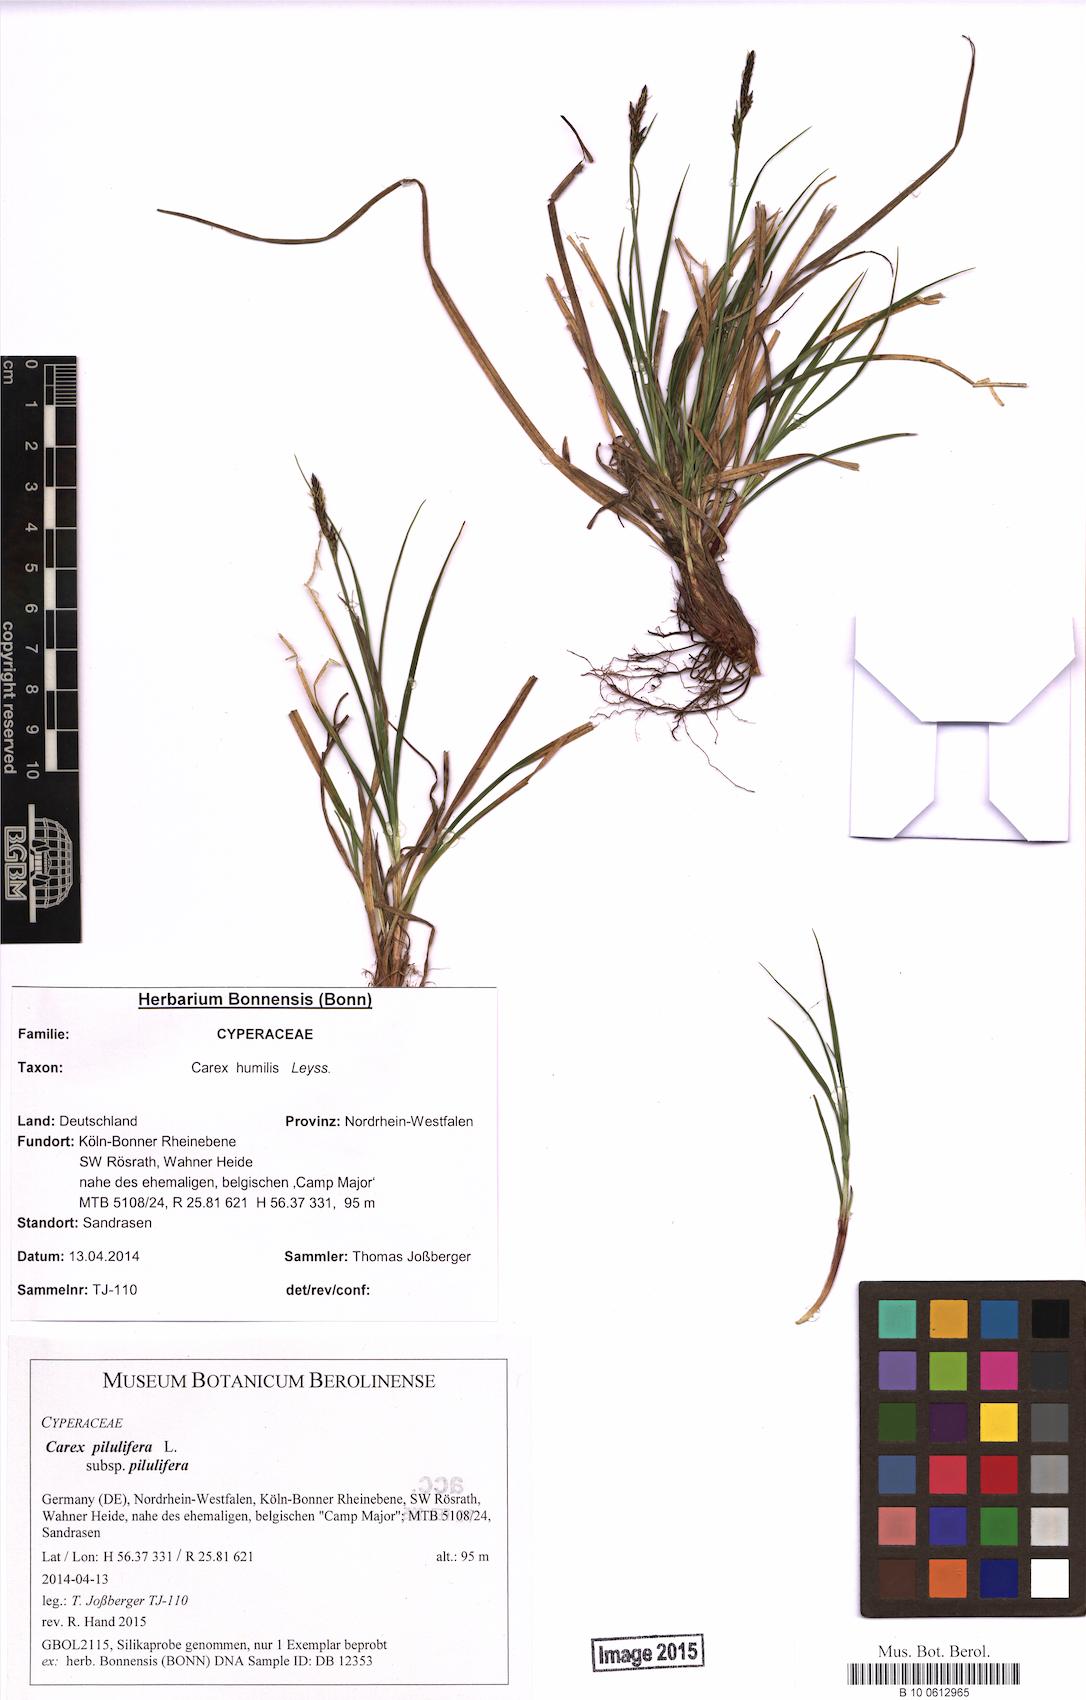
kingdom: Plantae
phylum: Tracheophyta
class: Liliopsida
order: Poales
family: Cyperaceae
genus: Carex
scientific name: Carex pilulifera
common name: Pill sedge
